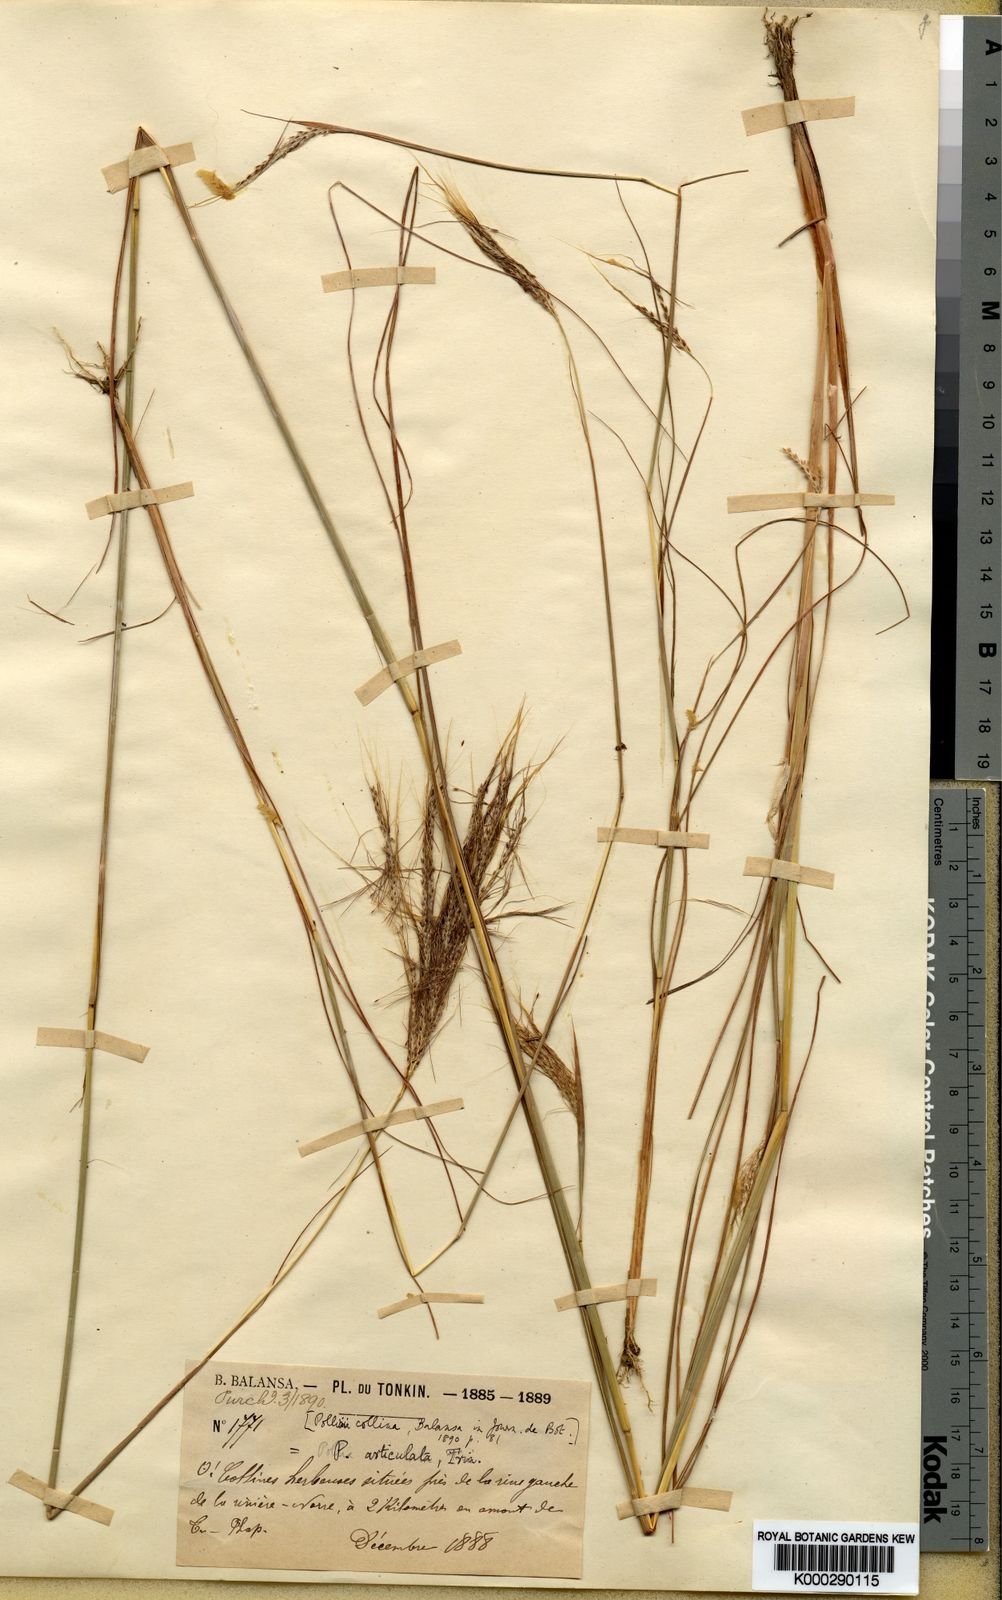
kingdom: Plantae
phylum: Tracheophyta
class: Liliopsida
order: Poales
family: Poaceae
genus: Pseudopogonatherum
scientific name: Pseudopogonatherum contortum
